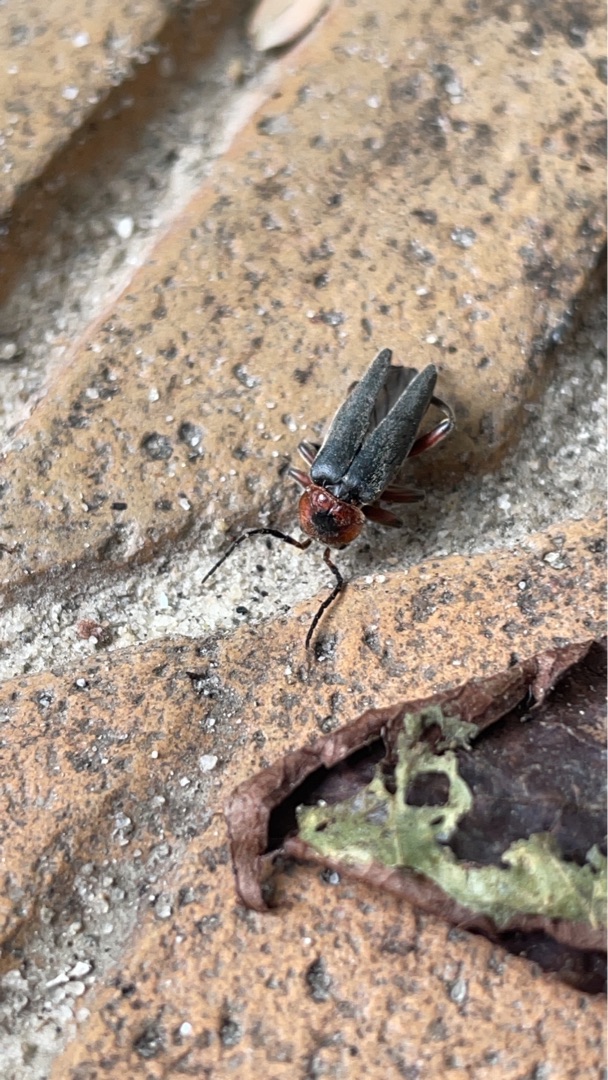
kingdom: Animalia
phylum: Arthropoda
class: Insecta
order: Coleoptera
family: Cantharidae
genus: Cantharis
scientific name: Cantharis rustica
